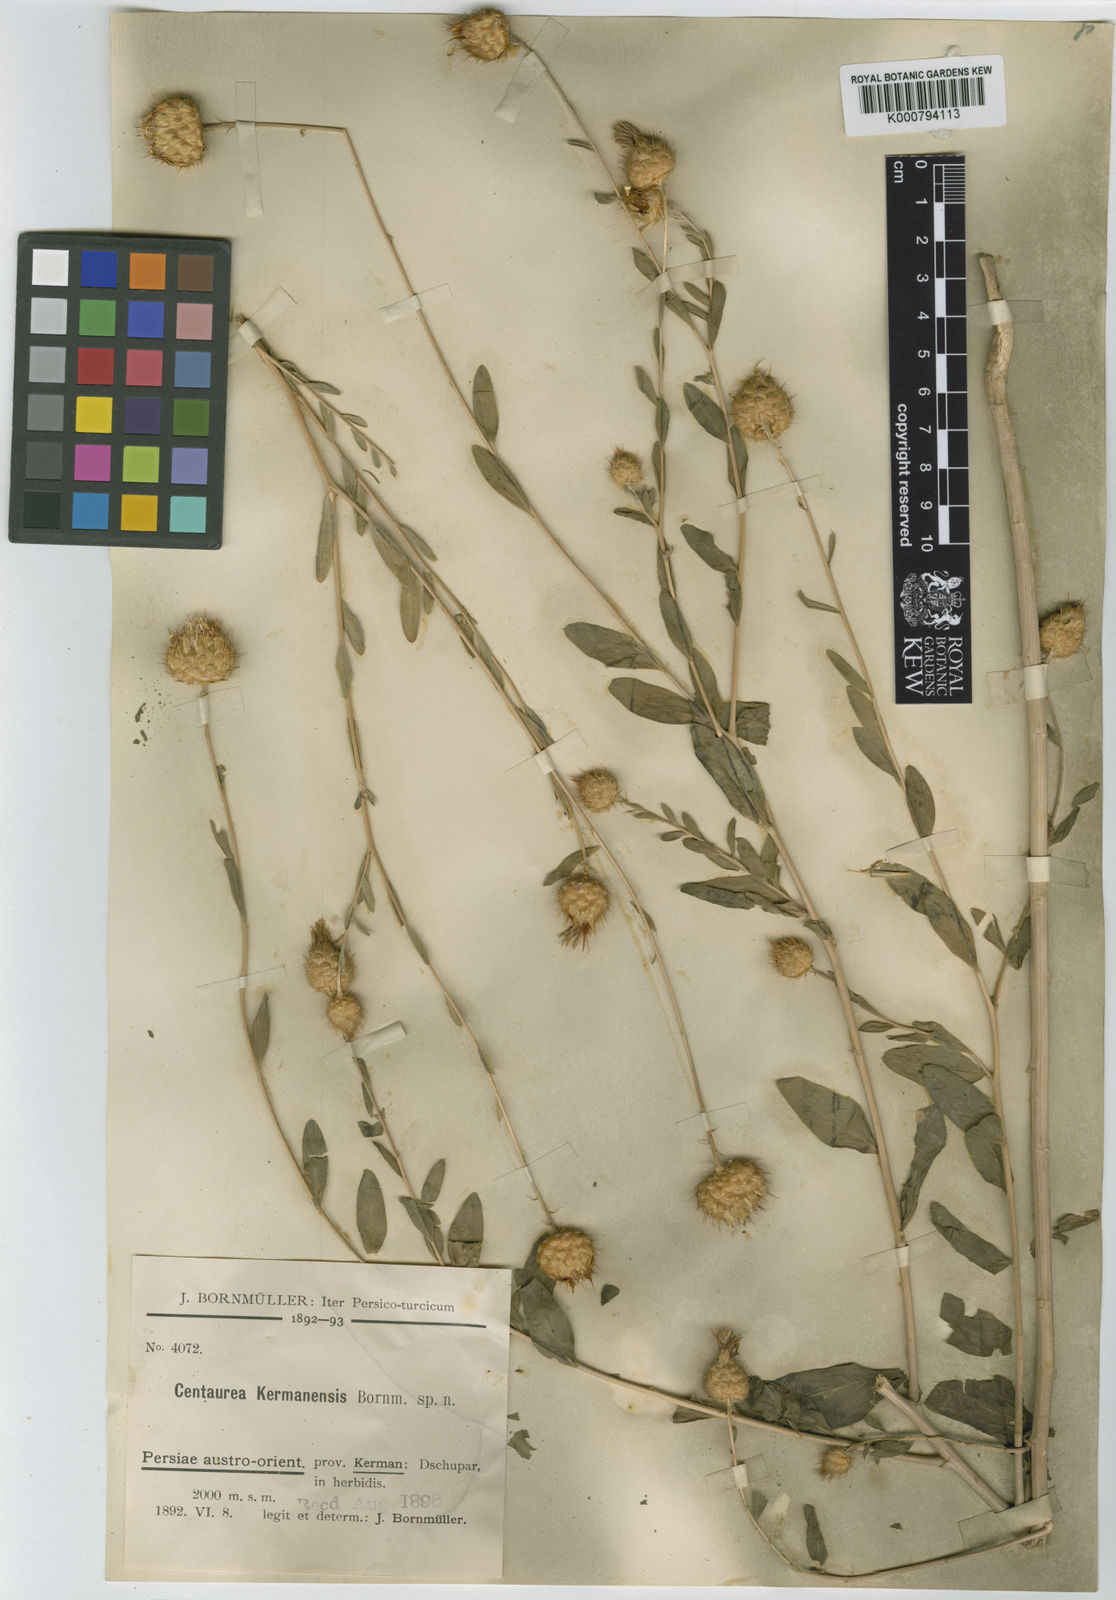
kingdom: Plantae
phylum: Tracheophyta
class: Magnoliopsida
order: Asterales
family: Asteraceae
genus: Stizolophus
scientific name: Stizolophus kermanensis
